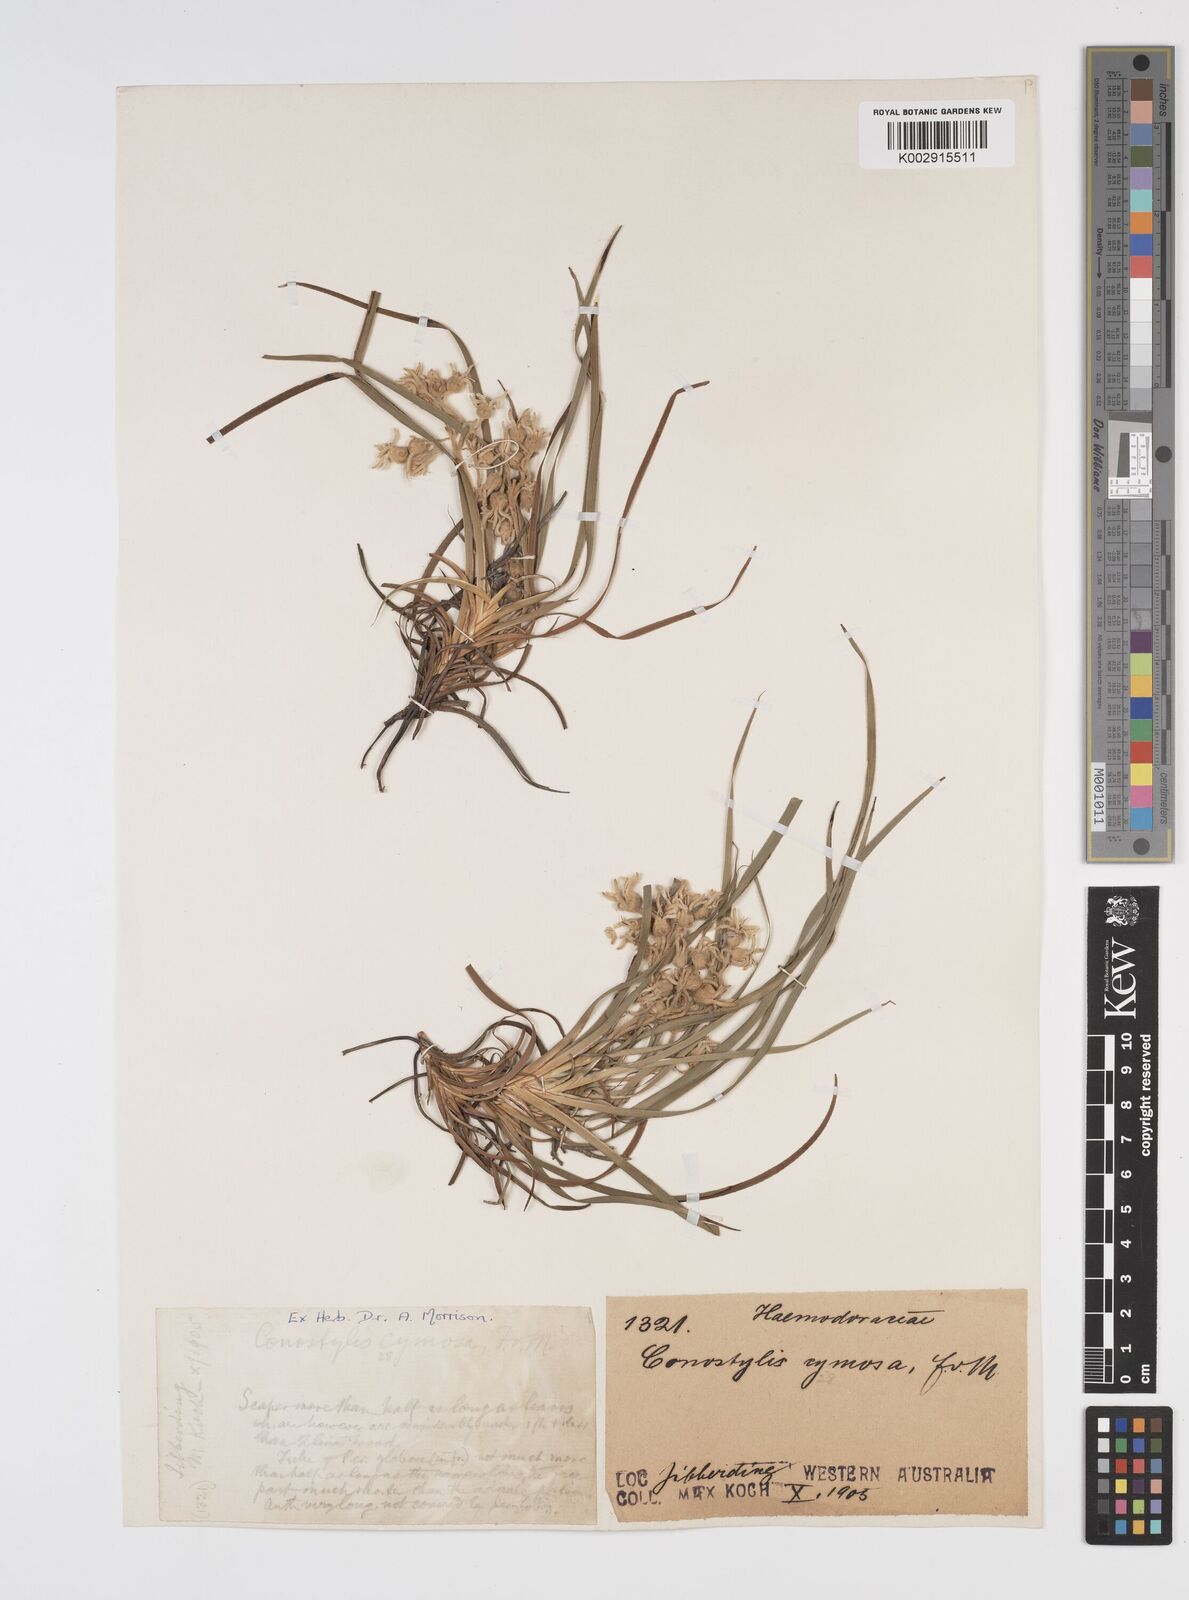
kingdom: Plantae
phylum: Tracheophyta
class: Liliopsida
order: Commelinales
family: Haemodoraceae
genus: Conostylis
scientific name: Conostylis aculeata
